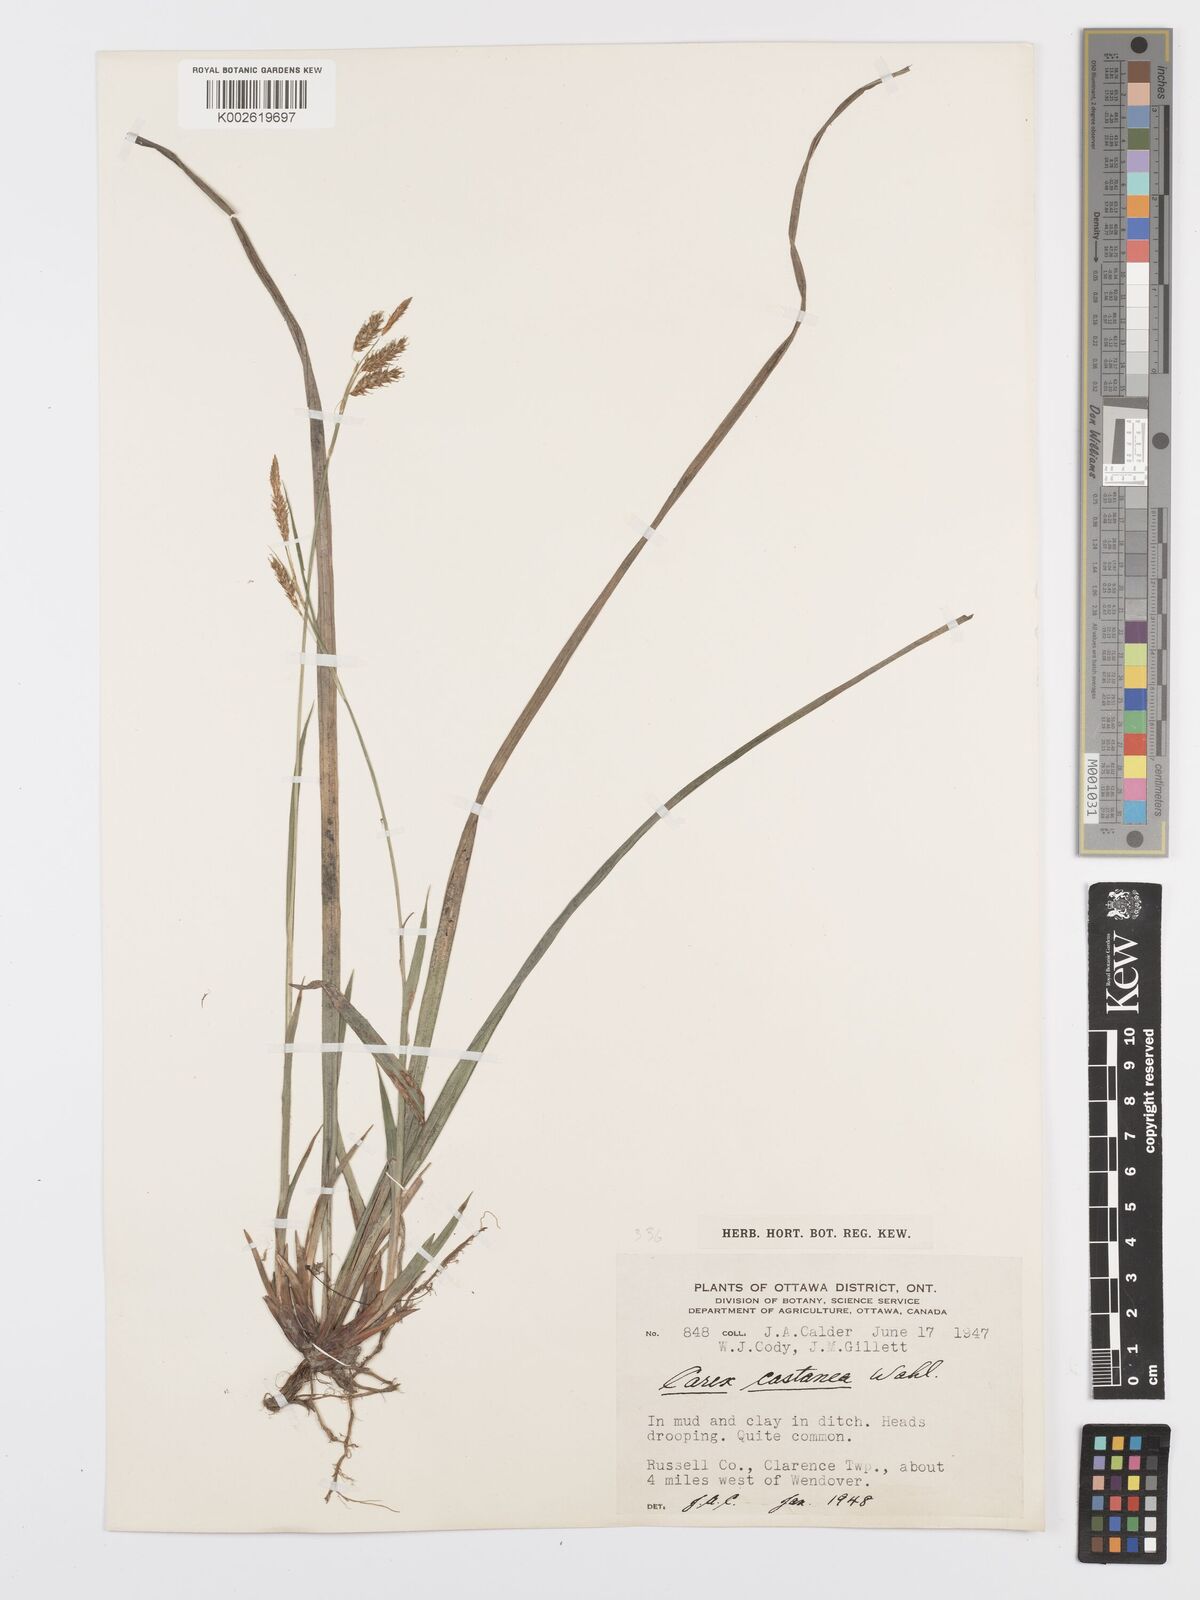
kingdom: Plantae
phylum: Tracheophyta
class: Liliopsida
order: Poales
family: Cyperaceae
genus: Carex
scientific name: Carex castanea
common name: Chestnut sedge
